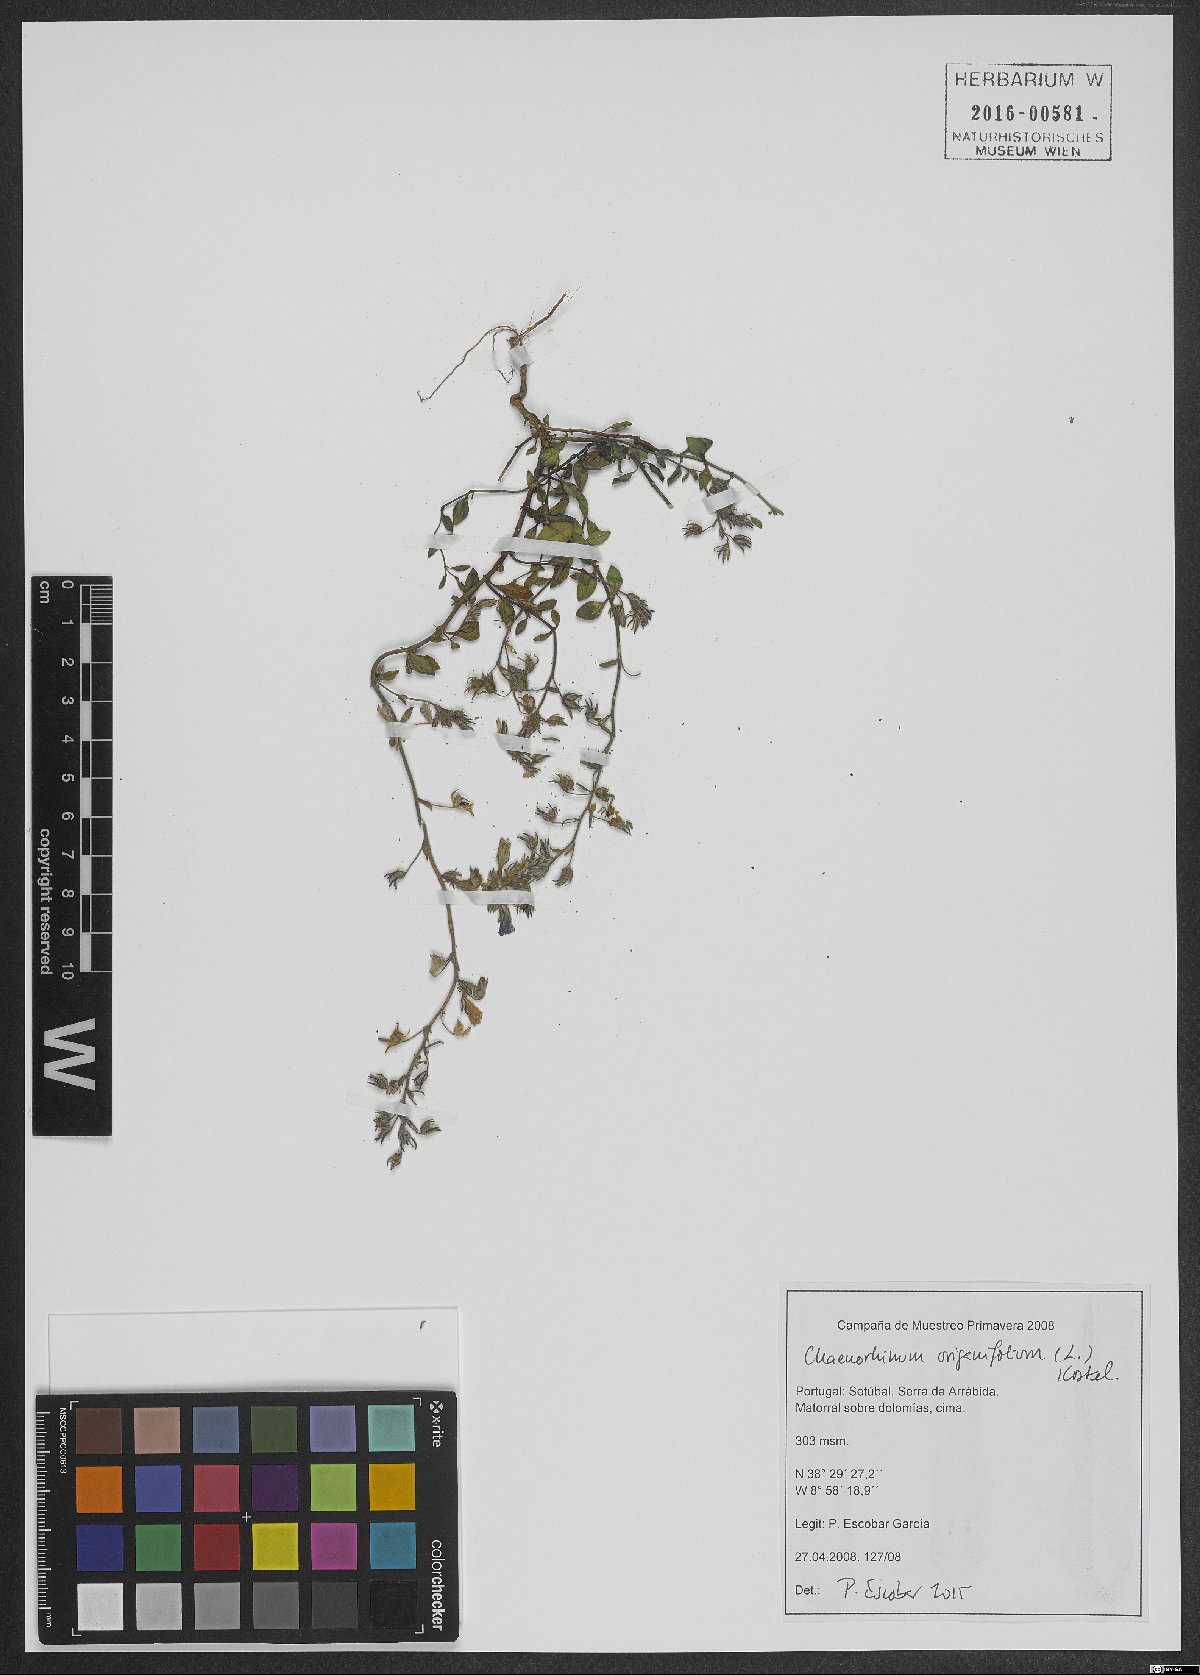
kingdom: Plantae
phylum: Tracheophyta
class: Magnoliopsida
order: Lamiales
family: Plantaginaceae
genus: Chaenorhinum
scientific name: Chaenorhinum origanifolium
